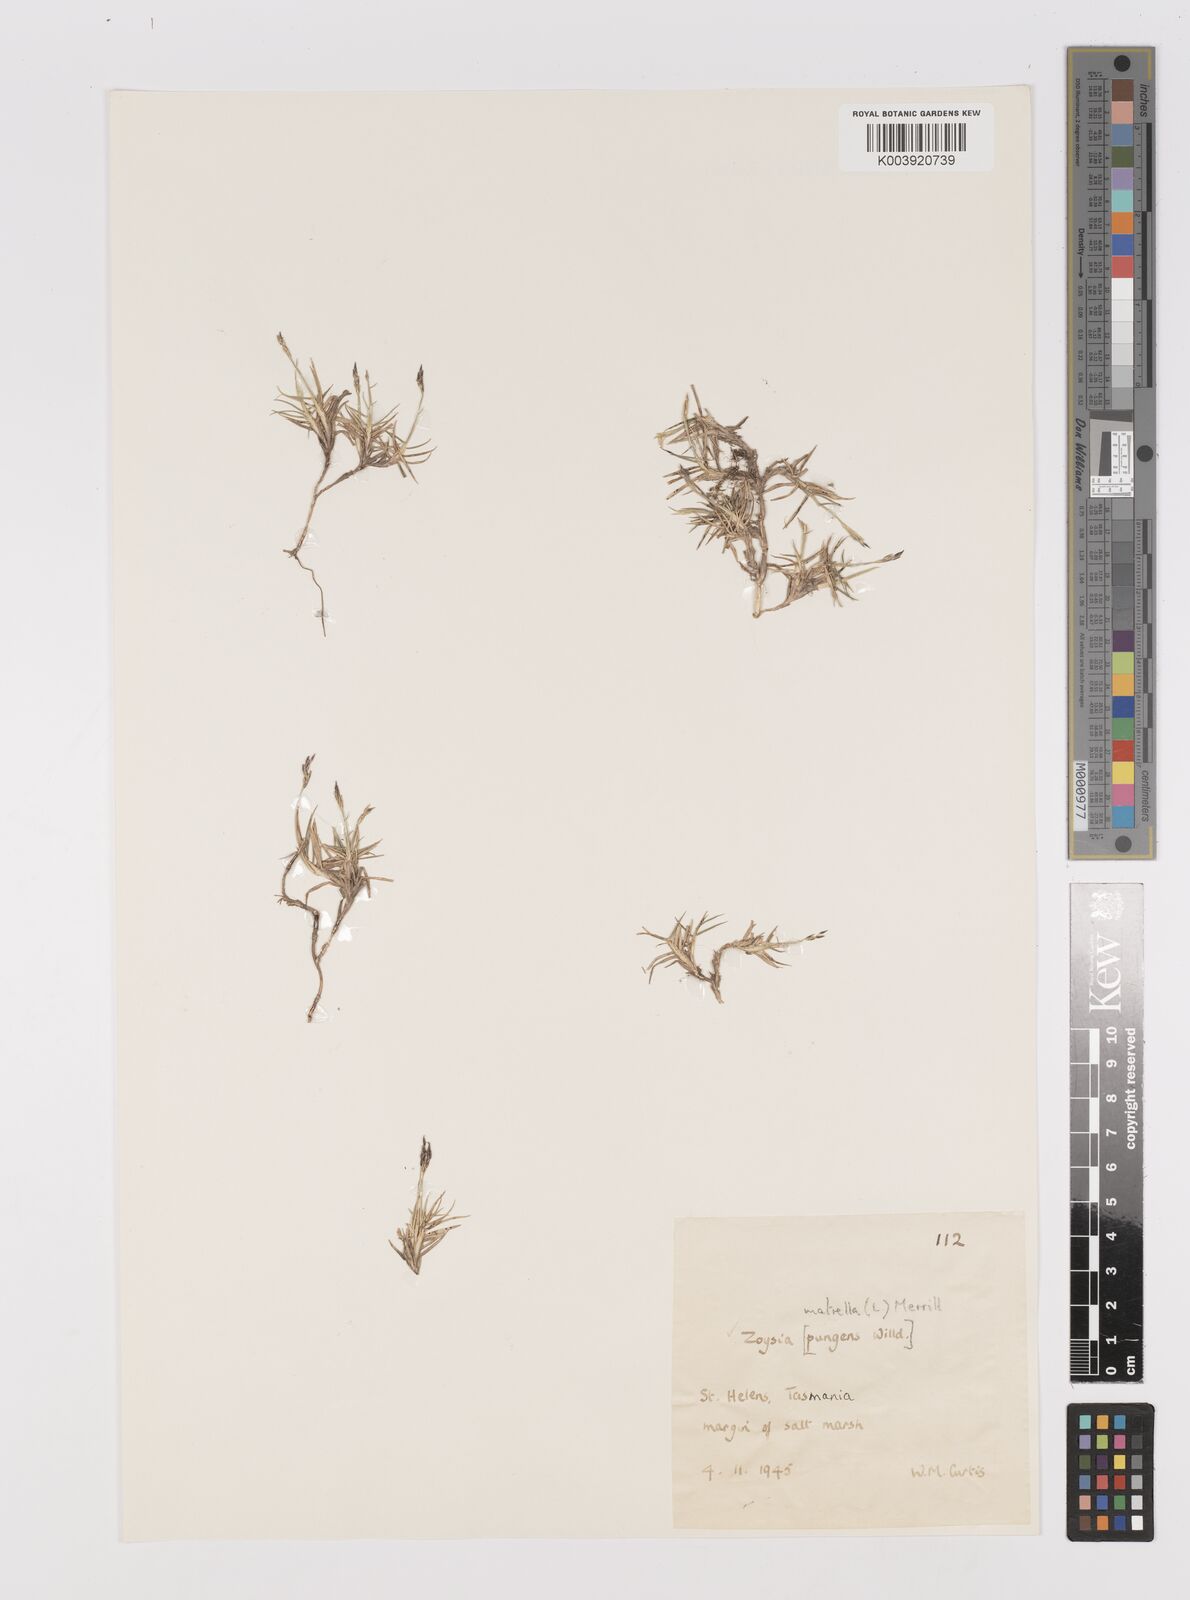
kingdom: Plantae
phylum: Tracheophyta
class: Liliopsida
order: Poales
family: Poaceae
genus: Zoysia
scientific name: Zoysia macrantha
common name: Korean lawn grass
